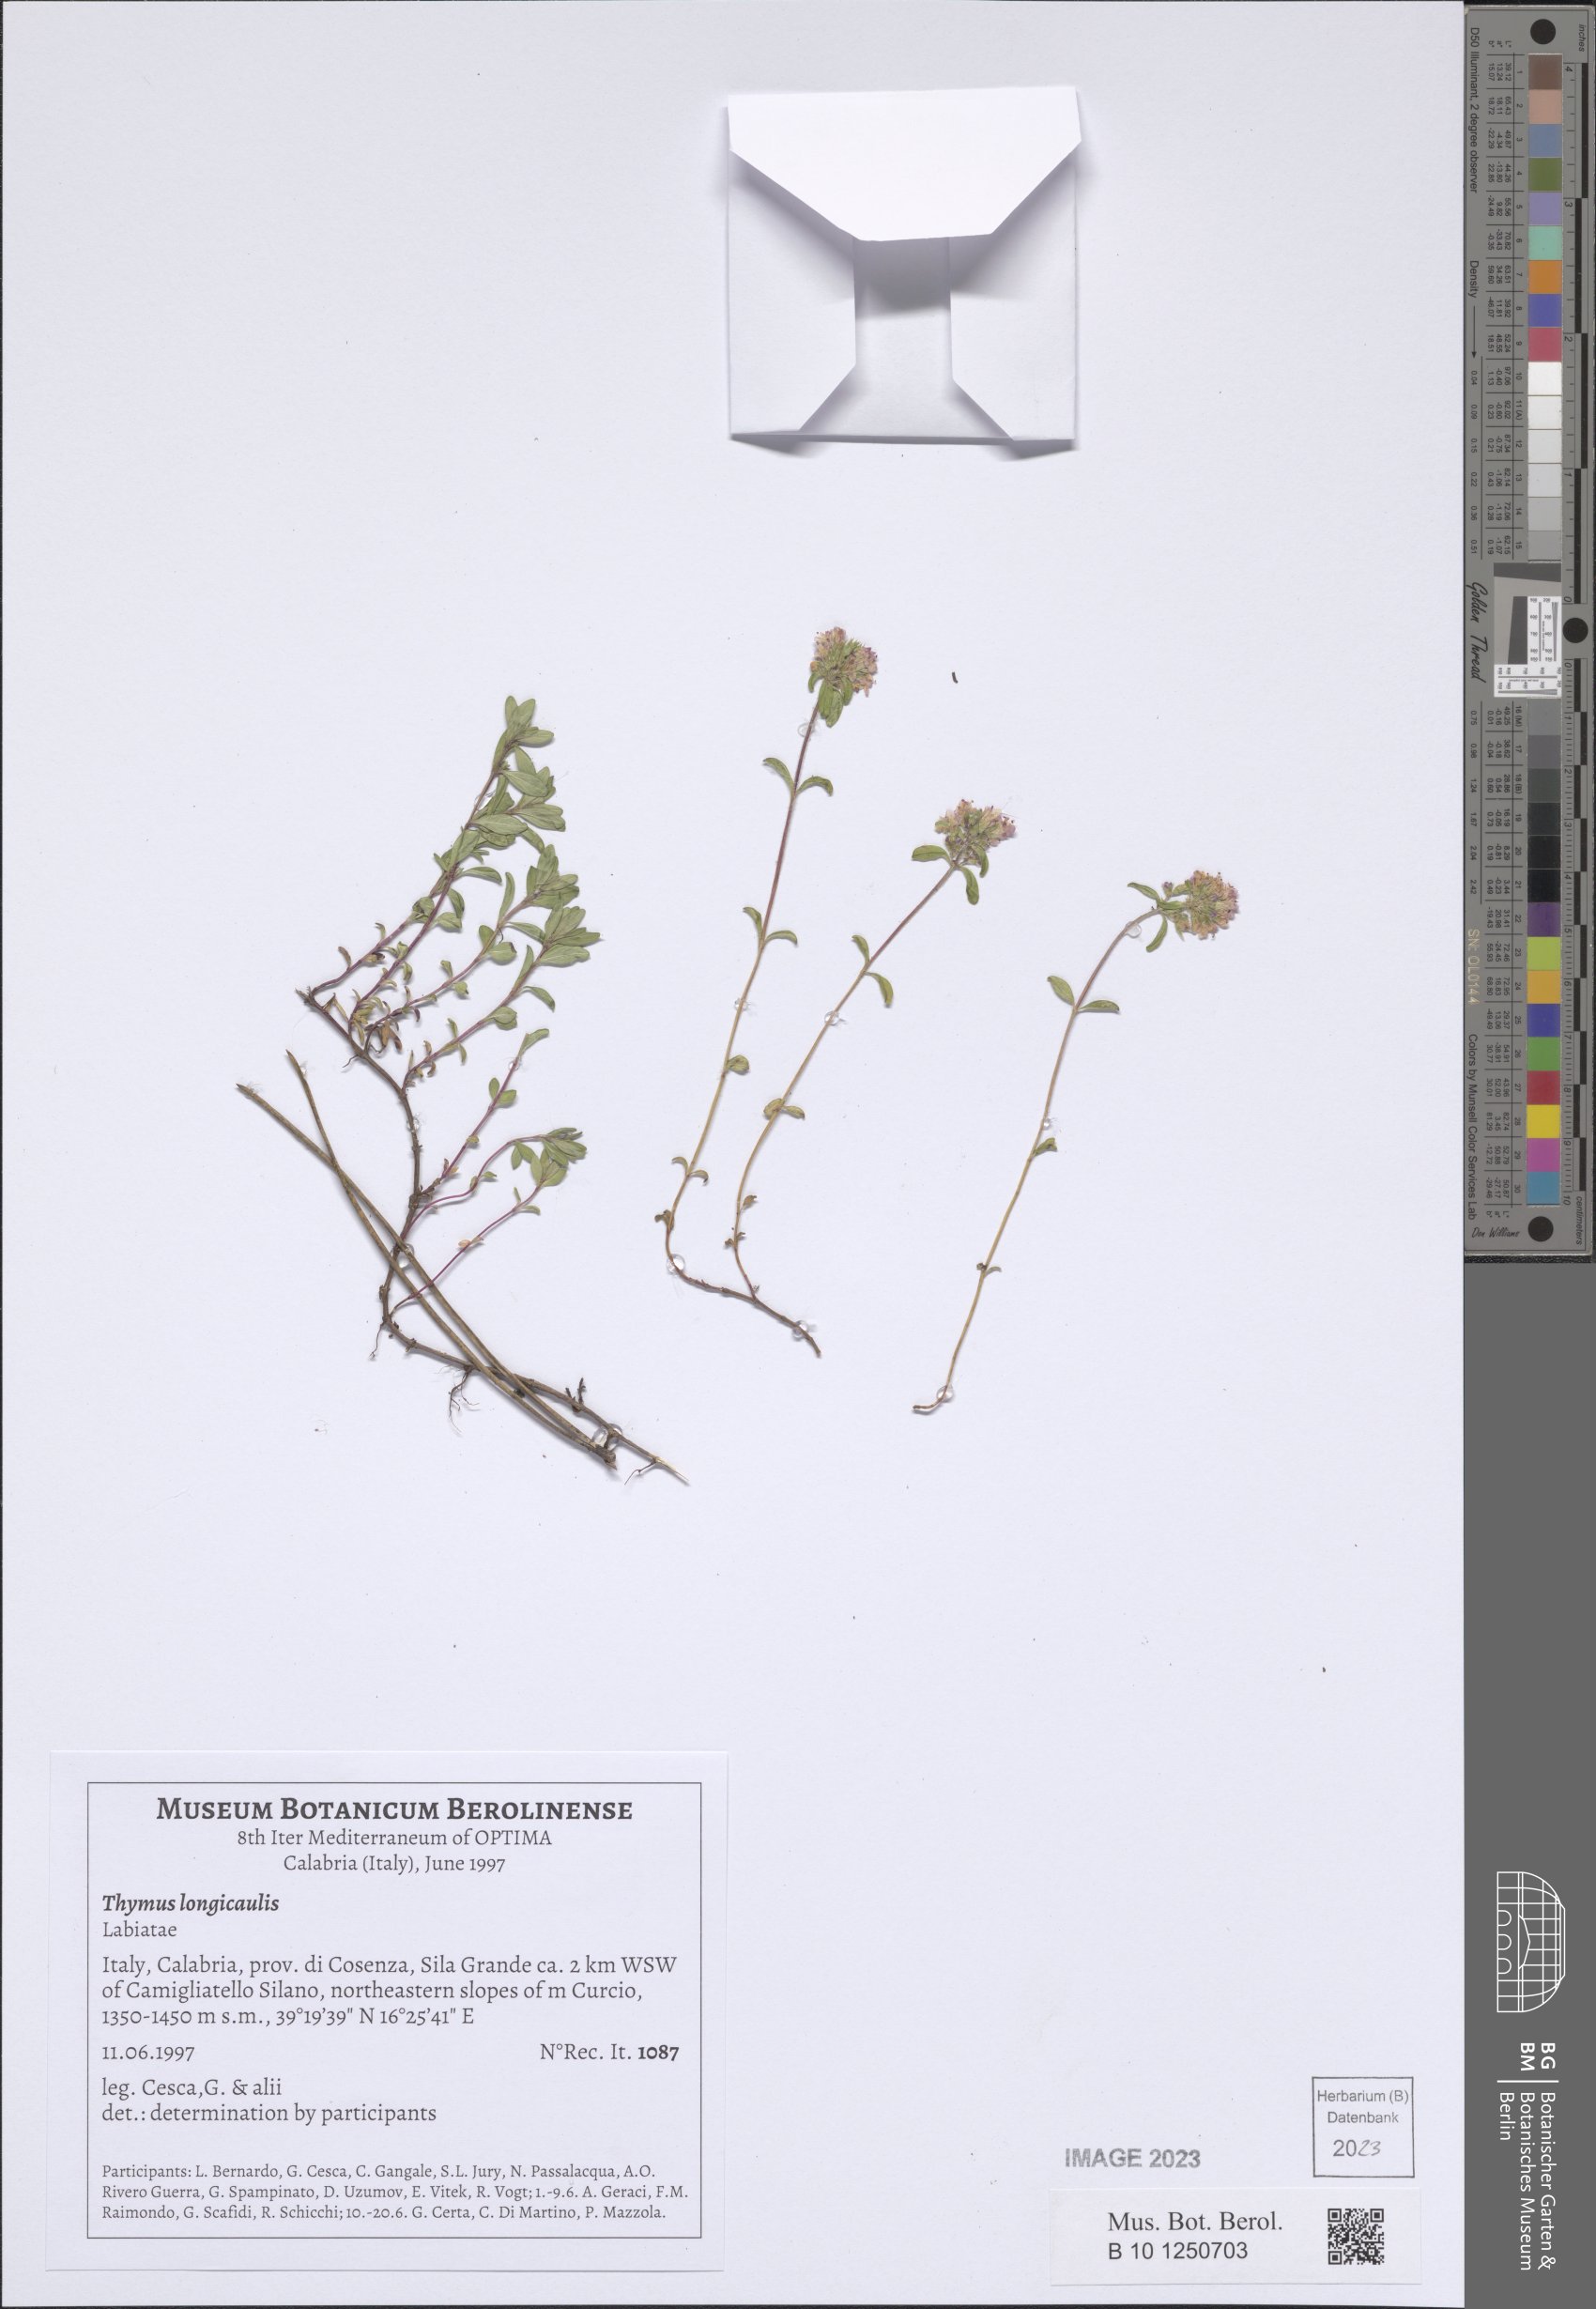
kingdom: Plantae
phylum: Tracheophyta
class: Magnoliopsida
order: Lamiales
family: Lamiaceae
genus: Thymus
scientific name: Thymus longicaulis
